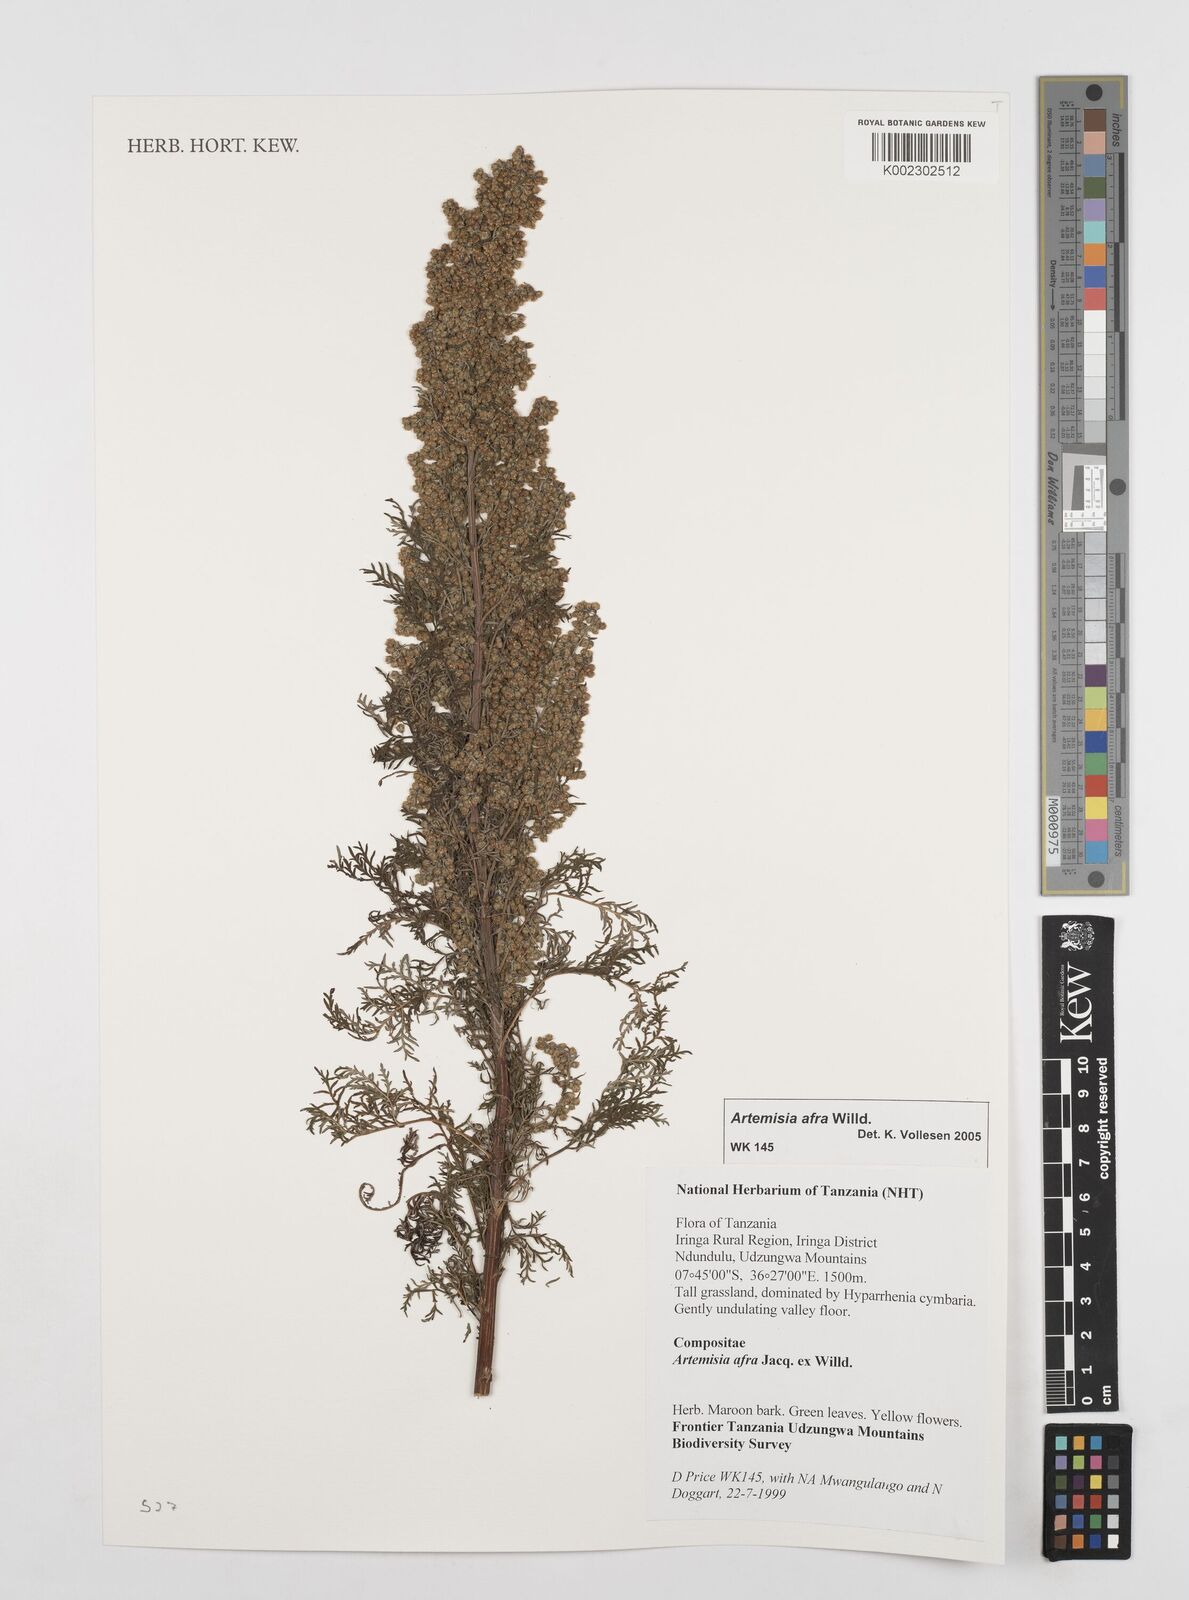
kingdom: Plantae
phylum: Tracheophyta
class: Magnoliopsida
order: Asterales
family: Asteraceae
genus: Artemisia
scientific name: Artemisia afra
